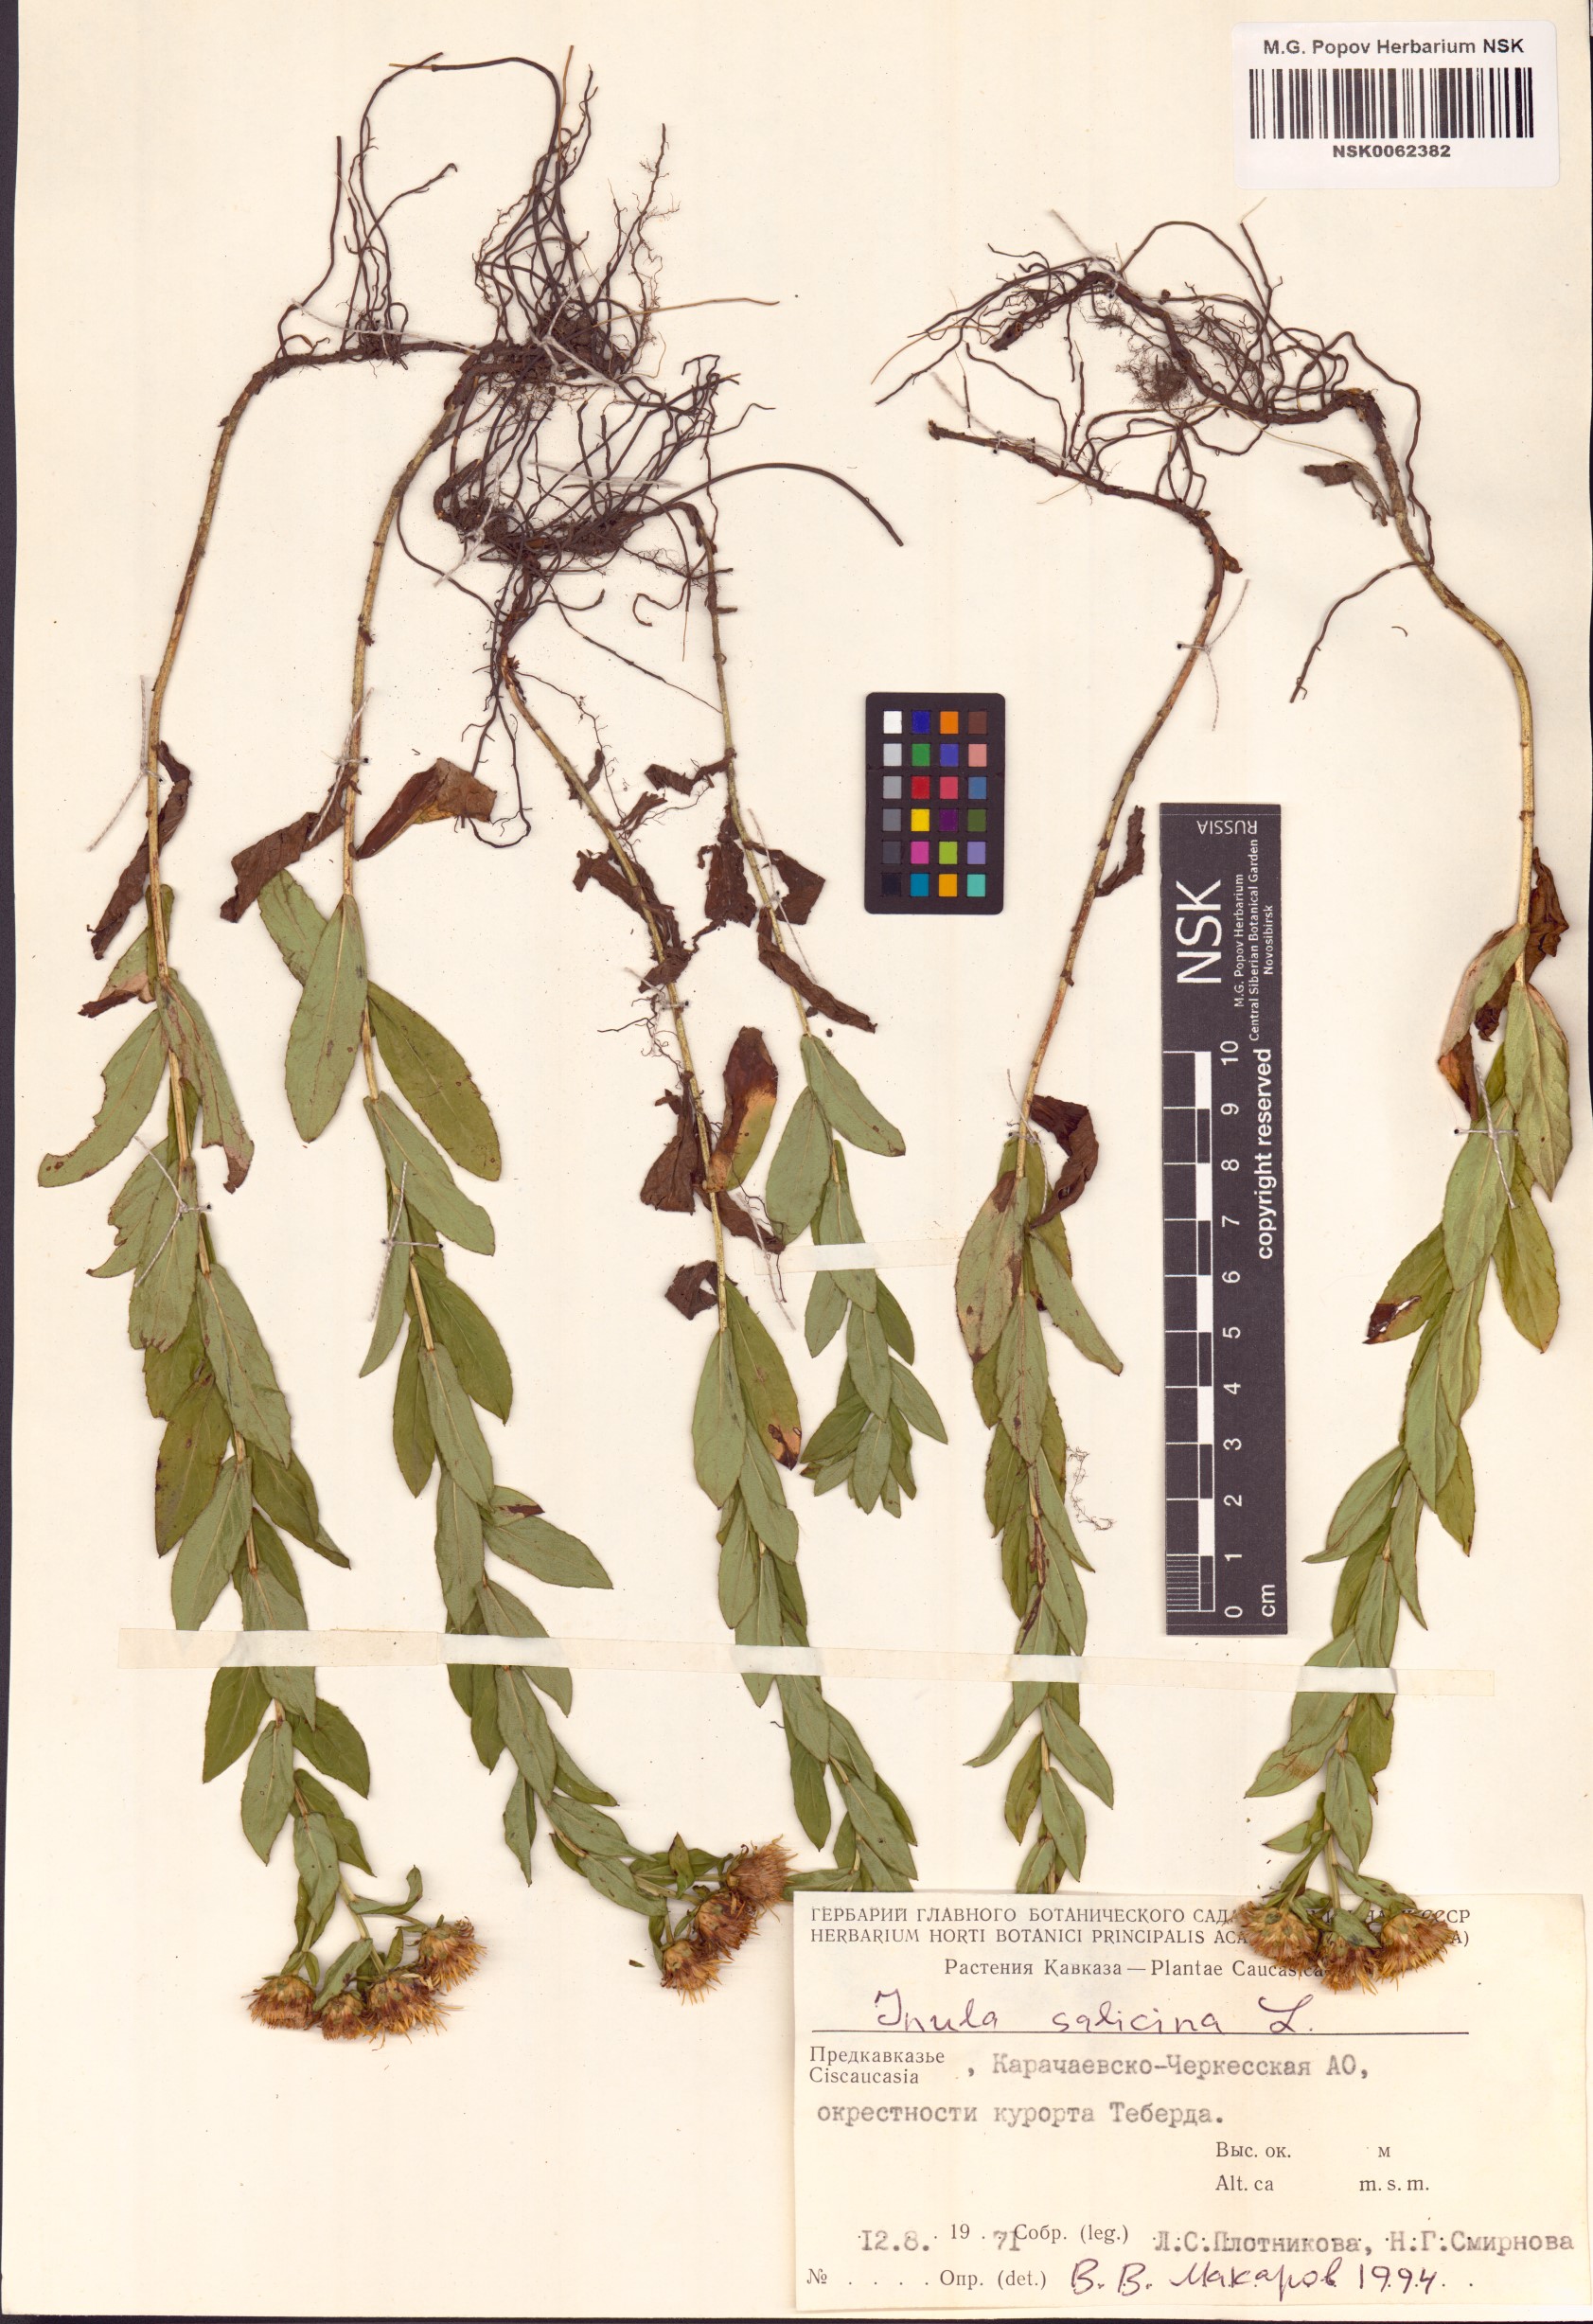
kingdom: Plantae
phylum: Tracheophyta
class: Magnoliopsida
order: Asterales
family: Asteraceae
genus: Pentanema
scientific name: Pentanema salicinum
